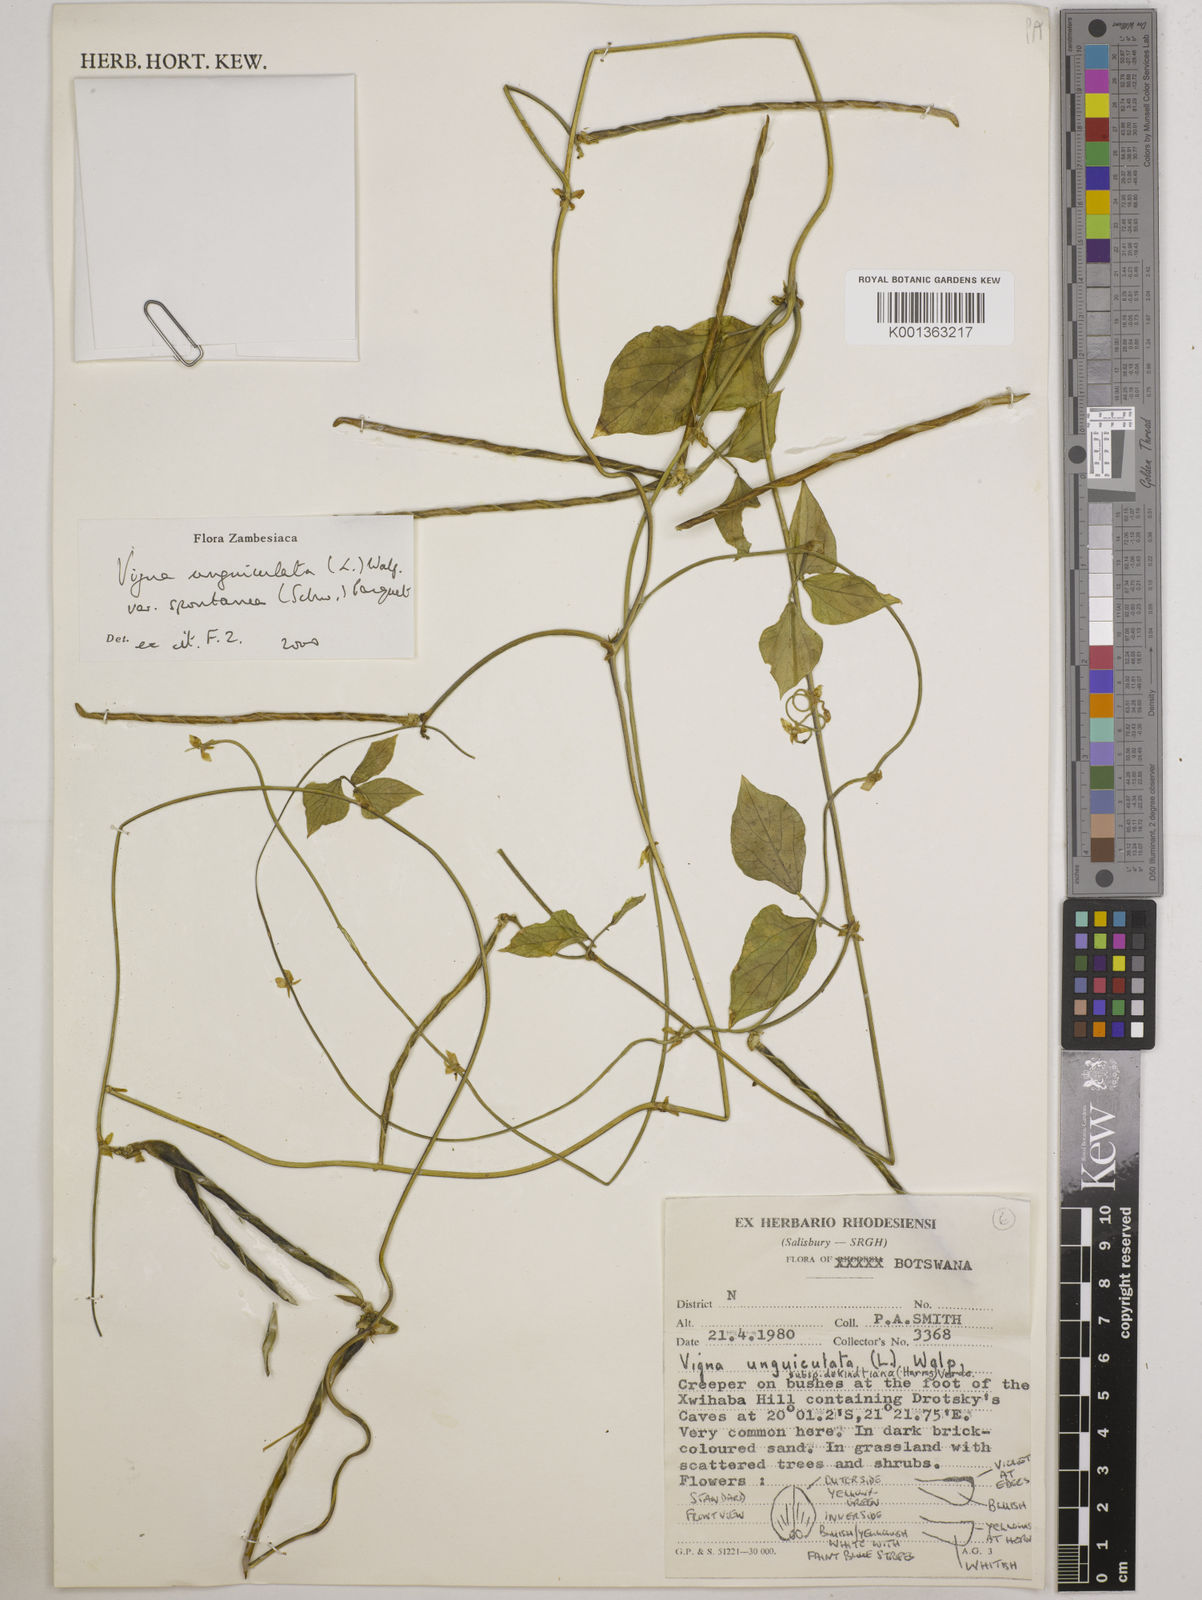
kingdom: Plantae
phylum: Tracheophyta
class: Magnoliopsida
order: Fabales
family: Fabaceae
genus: Vigna
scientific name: Vigna unguiculata
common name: Cowpea
